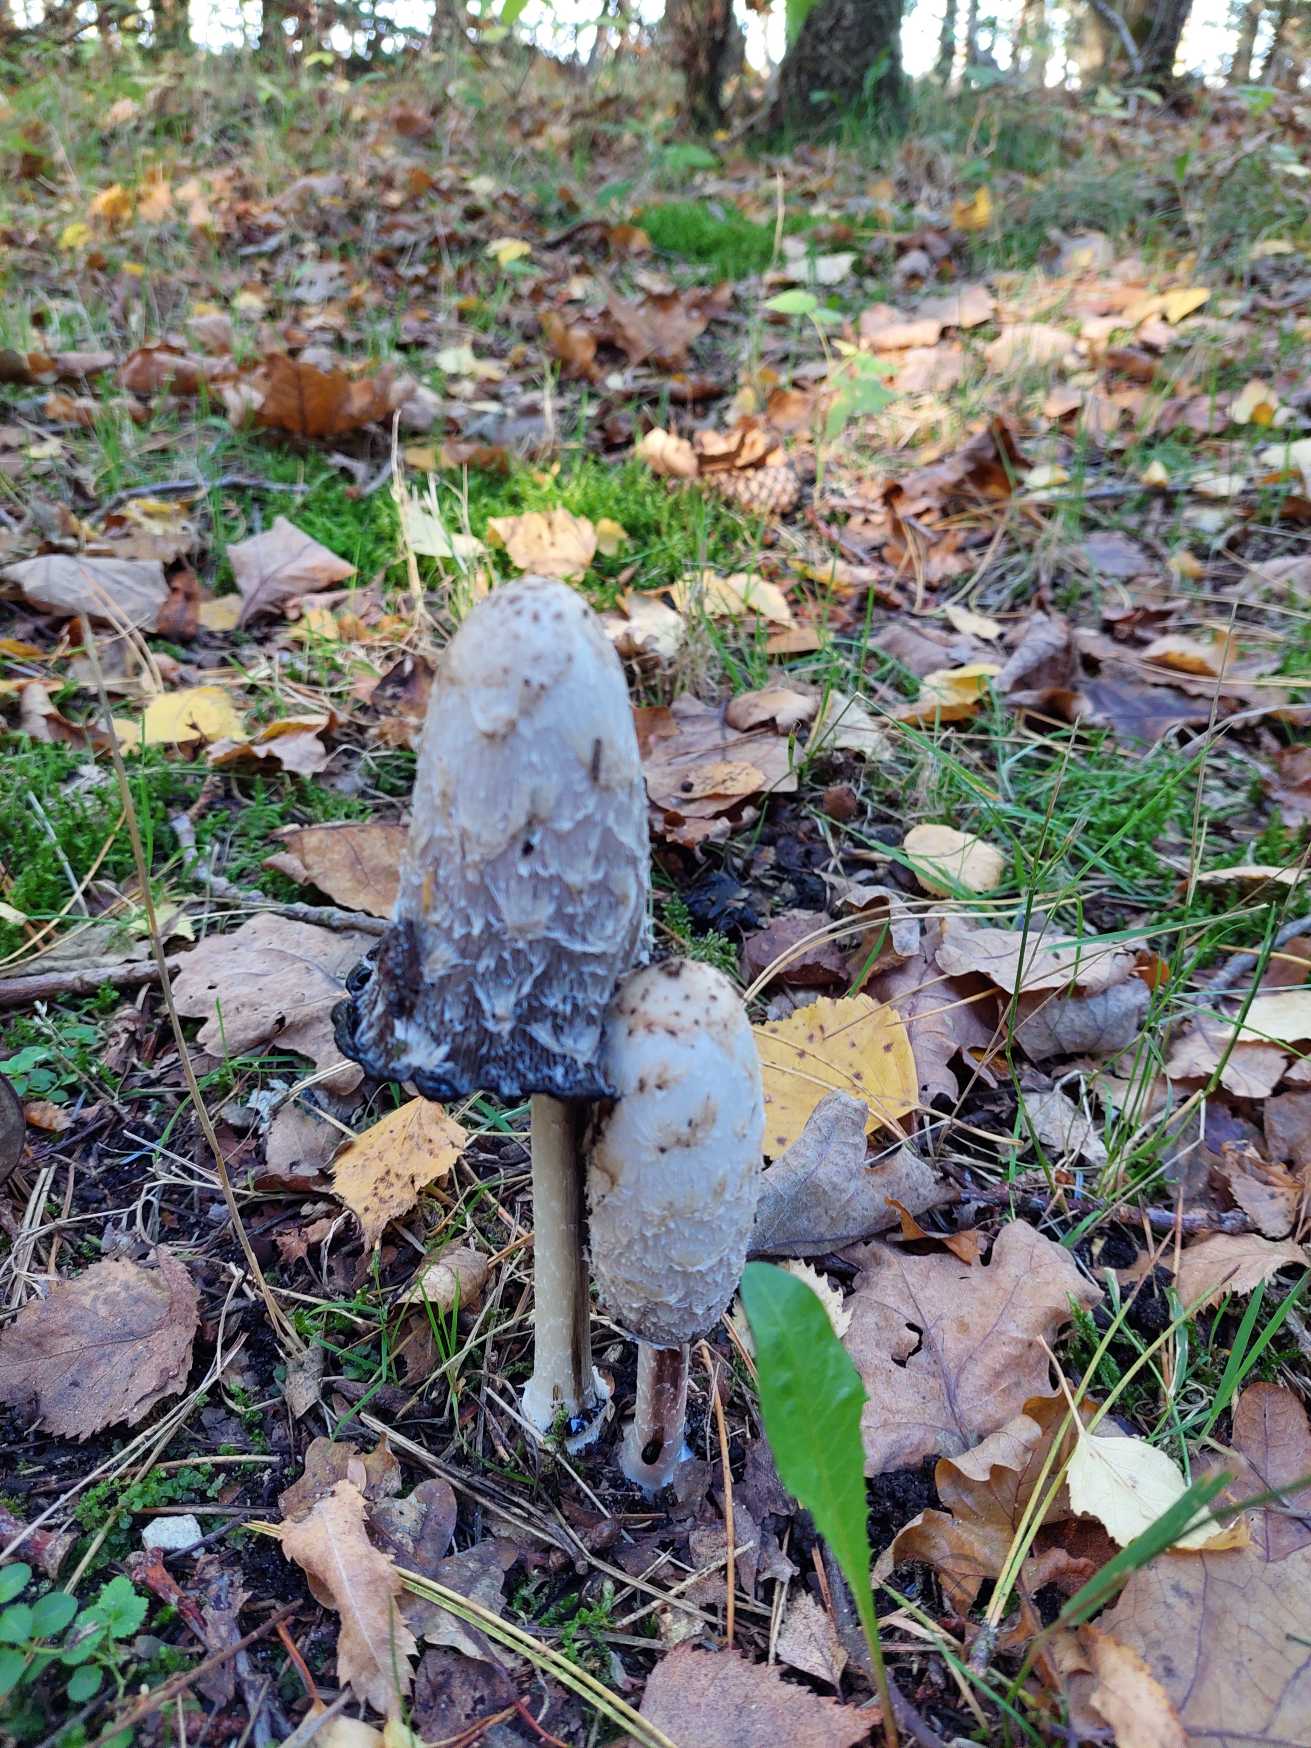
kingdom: Fungi
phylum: Basidiomycota
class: Agaricomycetes
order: Agaricales
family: Agaricaceae
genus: Coprinus
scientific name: Coprinus comatus
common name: Stor parykhat
